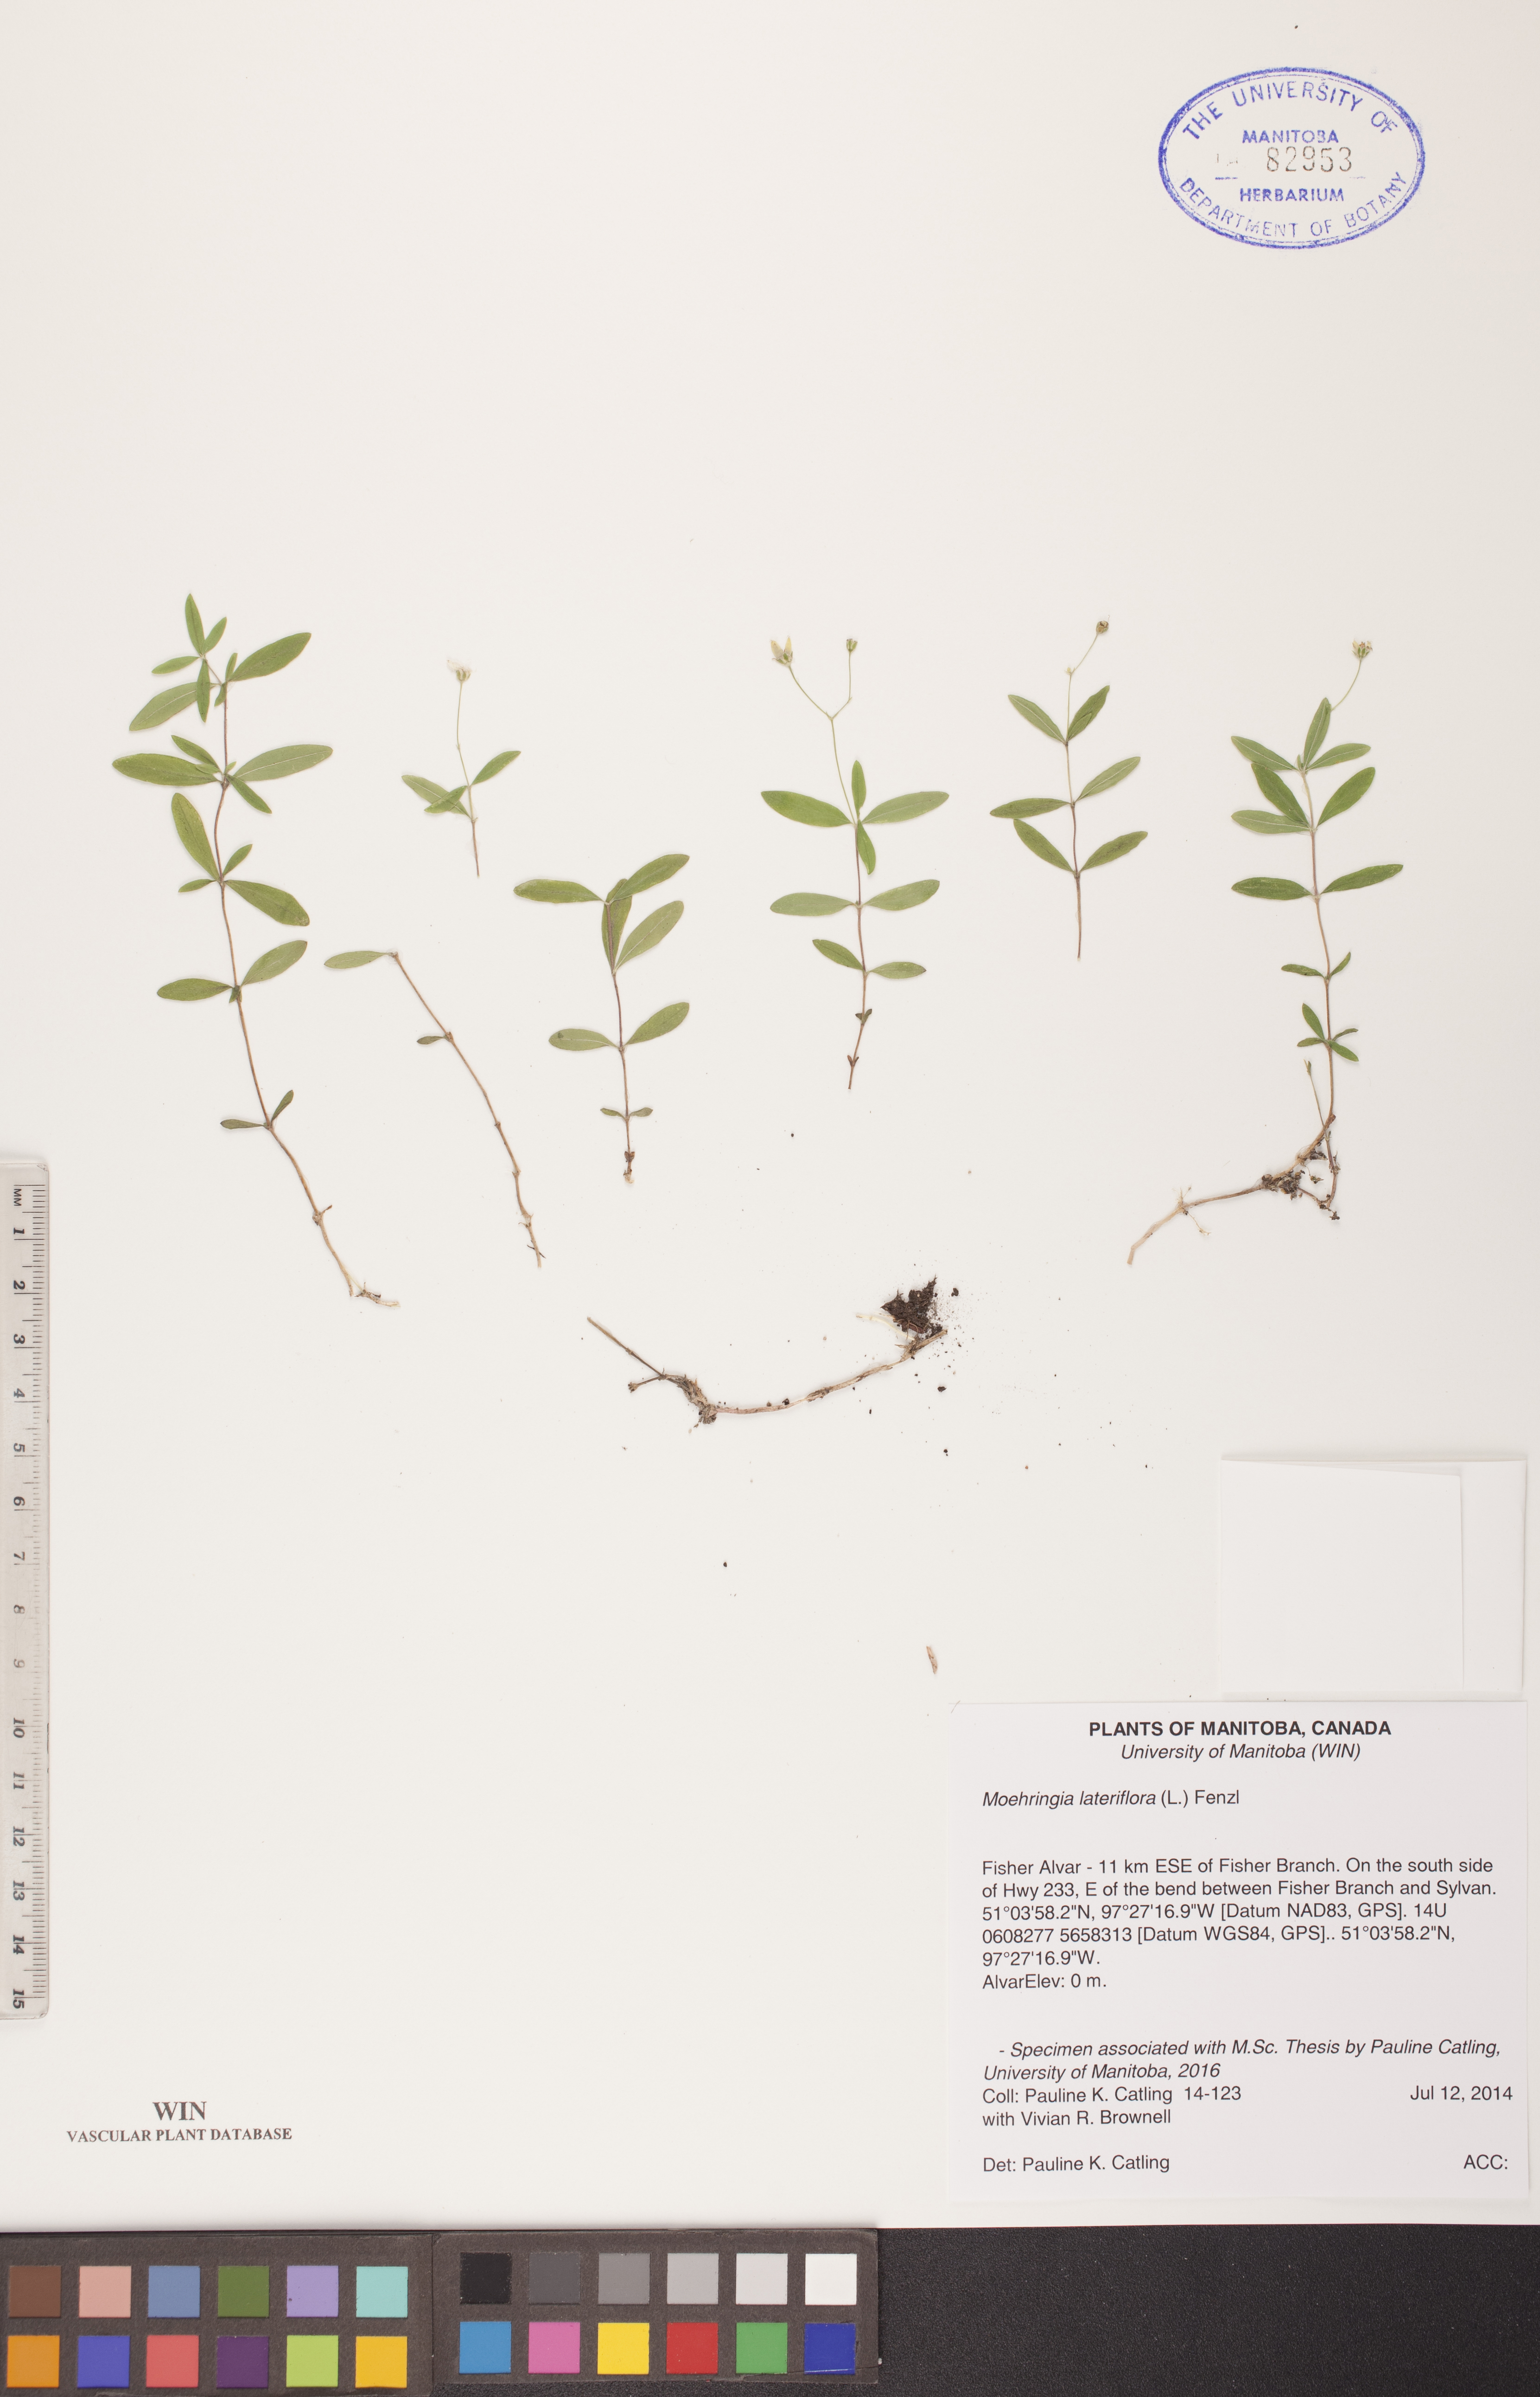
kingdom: Plantae
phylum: Tracheophyta
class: Magnoliopsida
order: Caryophyllales
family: Caryophyllaceae
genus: Moehringia
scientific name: Moehringia lateriflora
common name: Blunt-leaved sandwort
